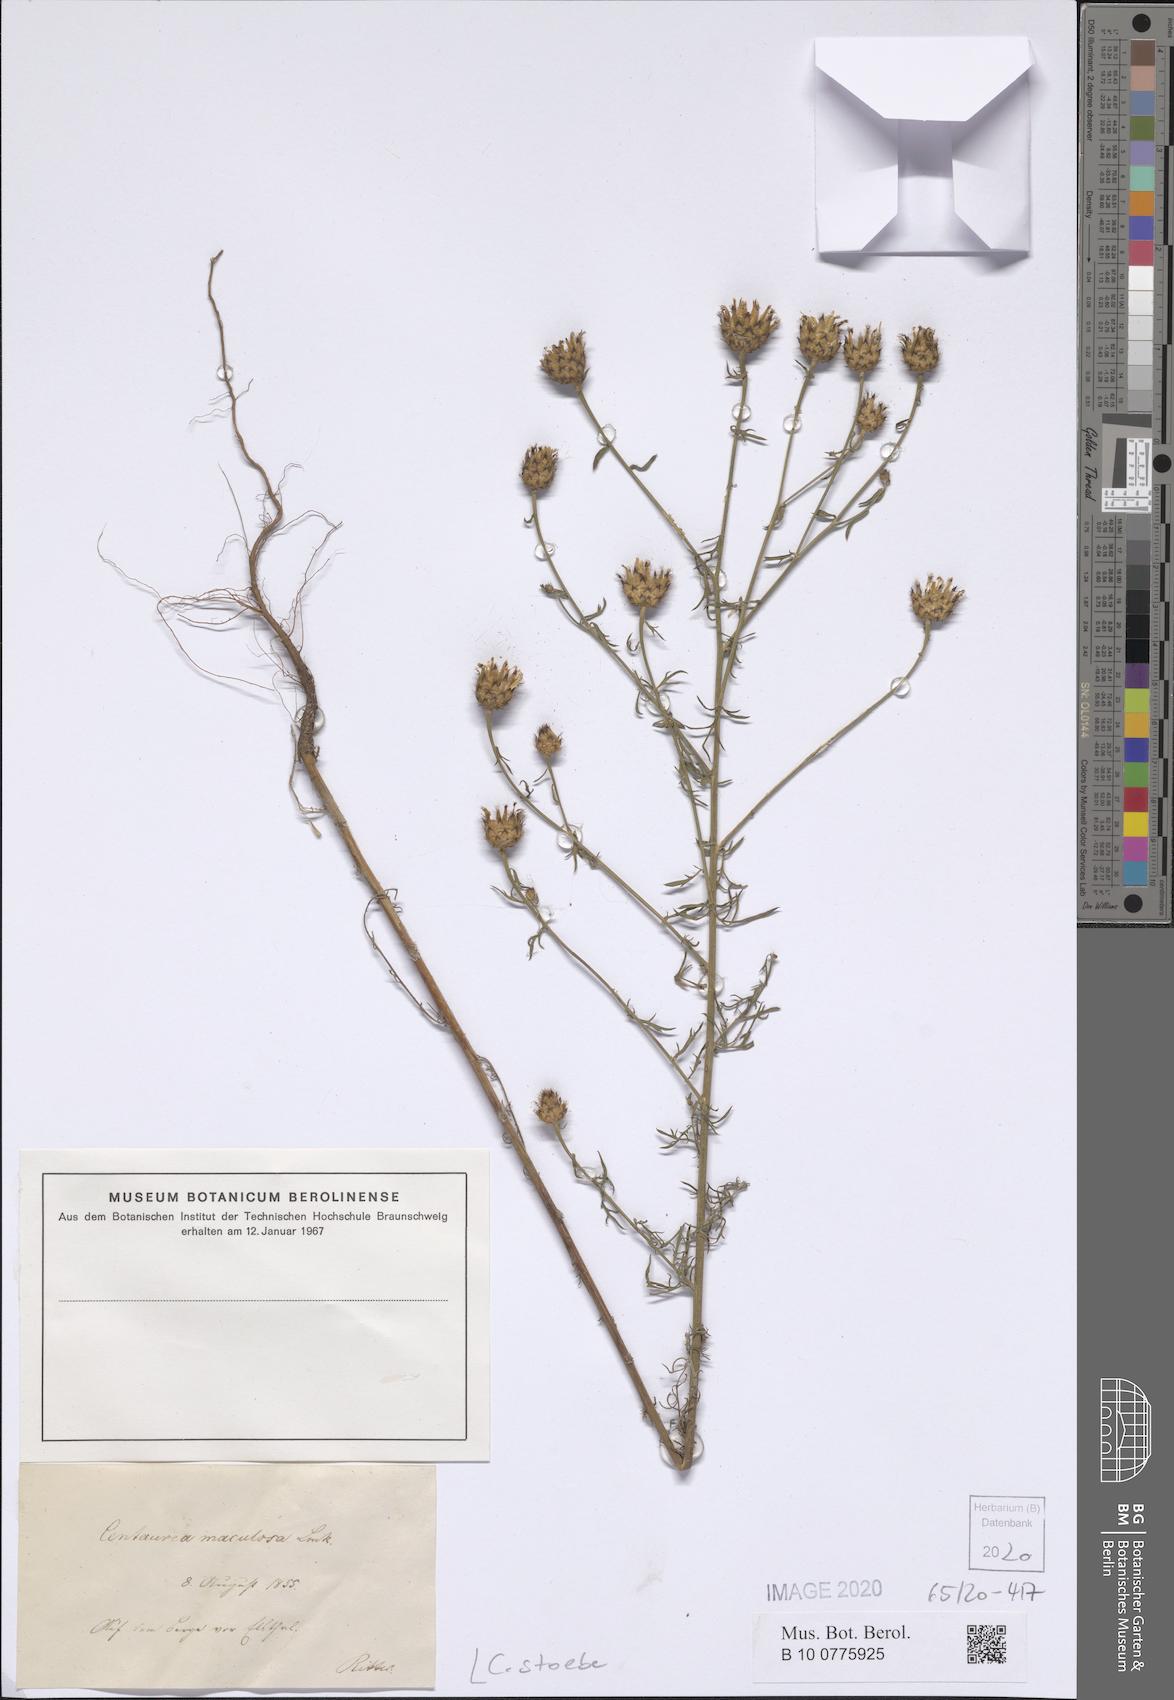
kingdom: Plantae
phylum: Tracheophyta
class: Magnoliopsida
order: Asterales
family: Asteraceae
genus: Centaurea
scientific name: Centaurea stoebe
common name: Spotted knapweed
